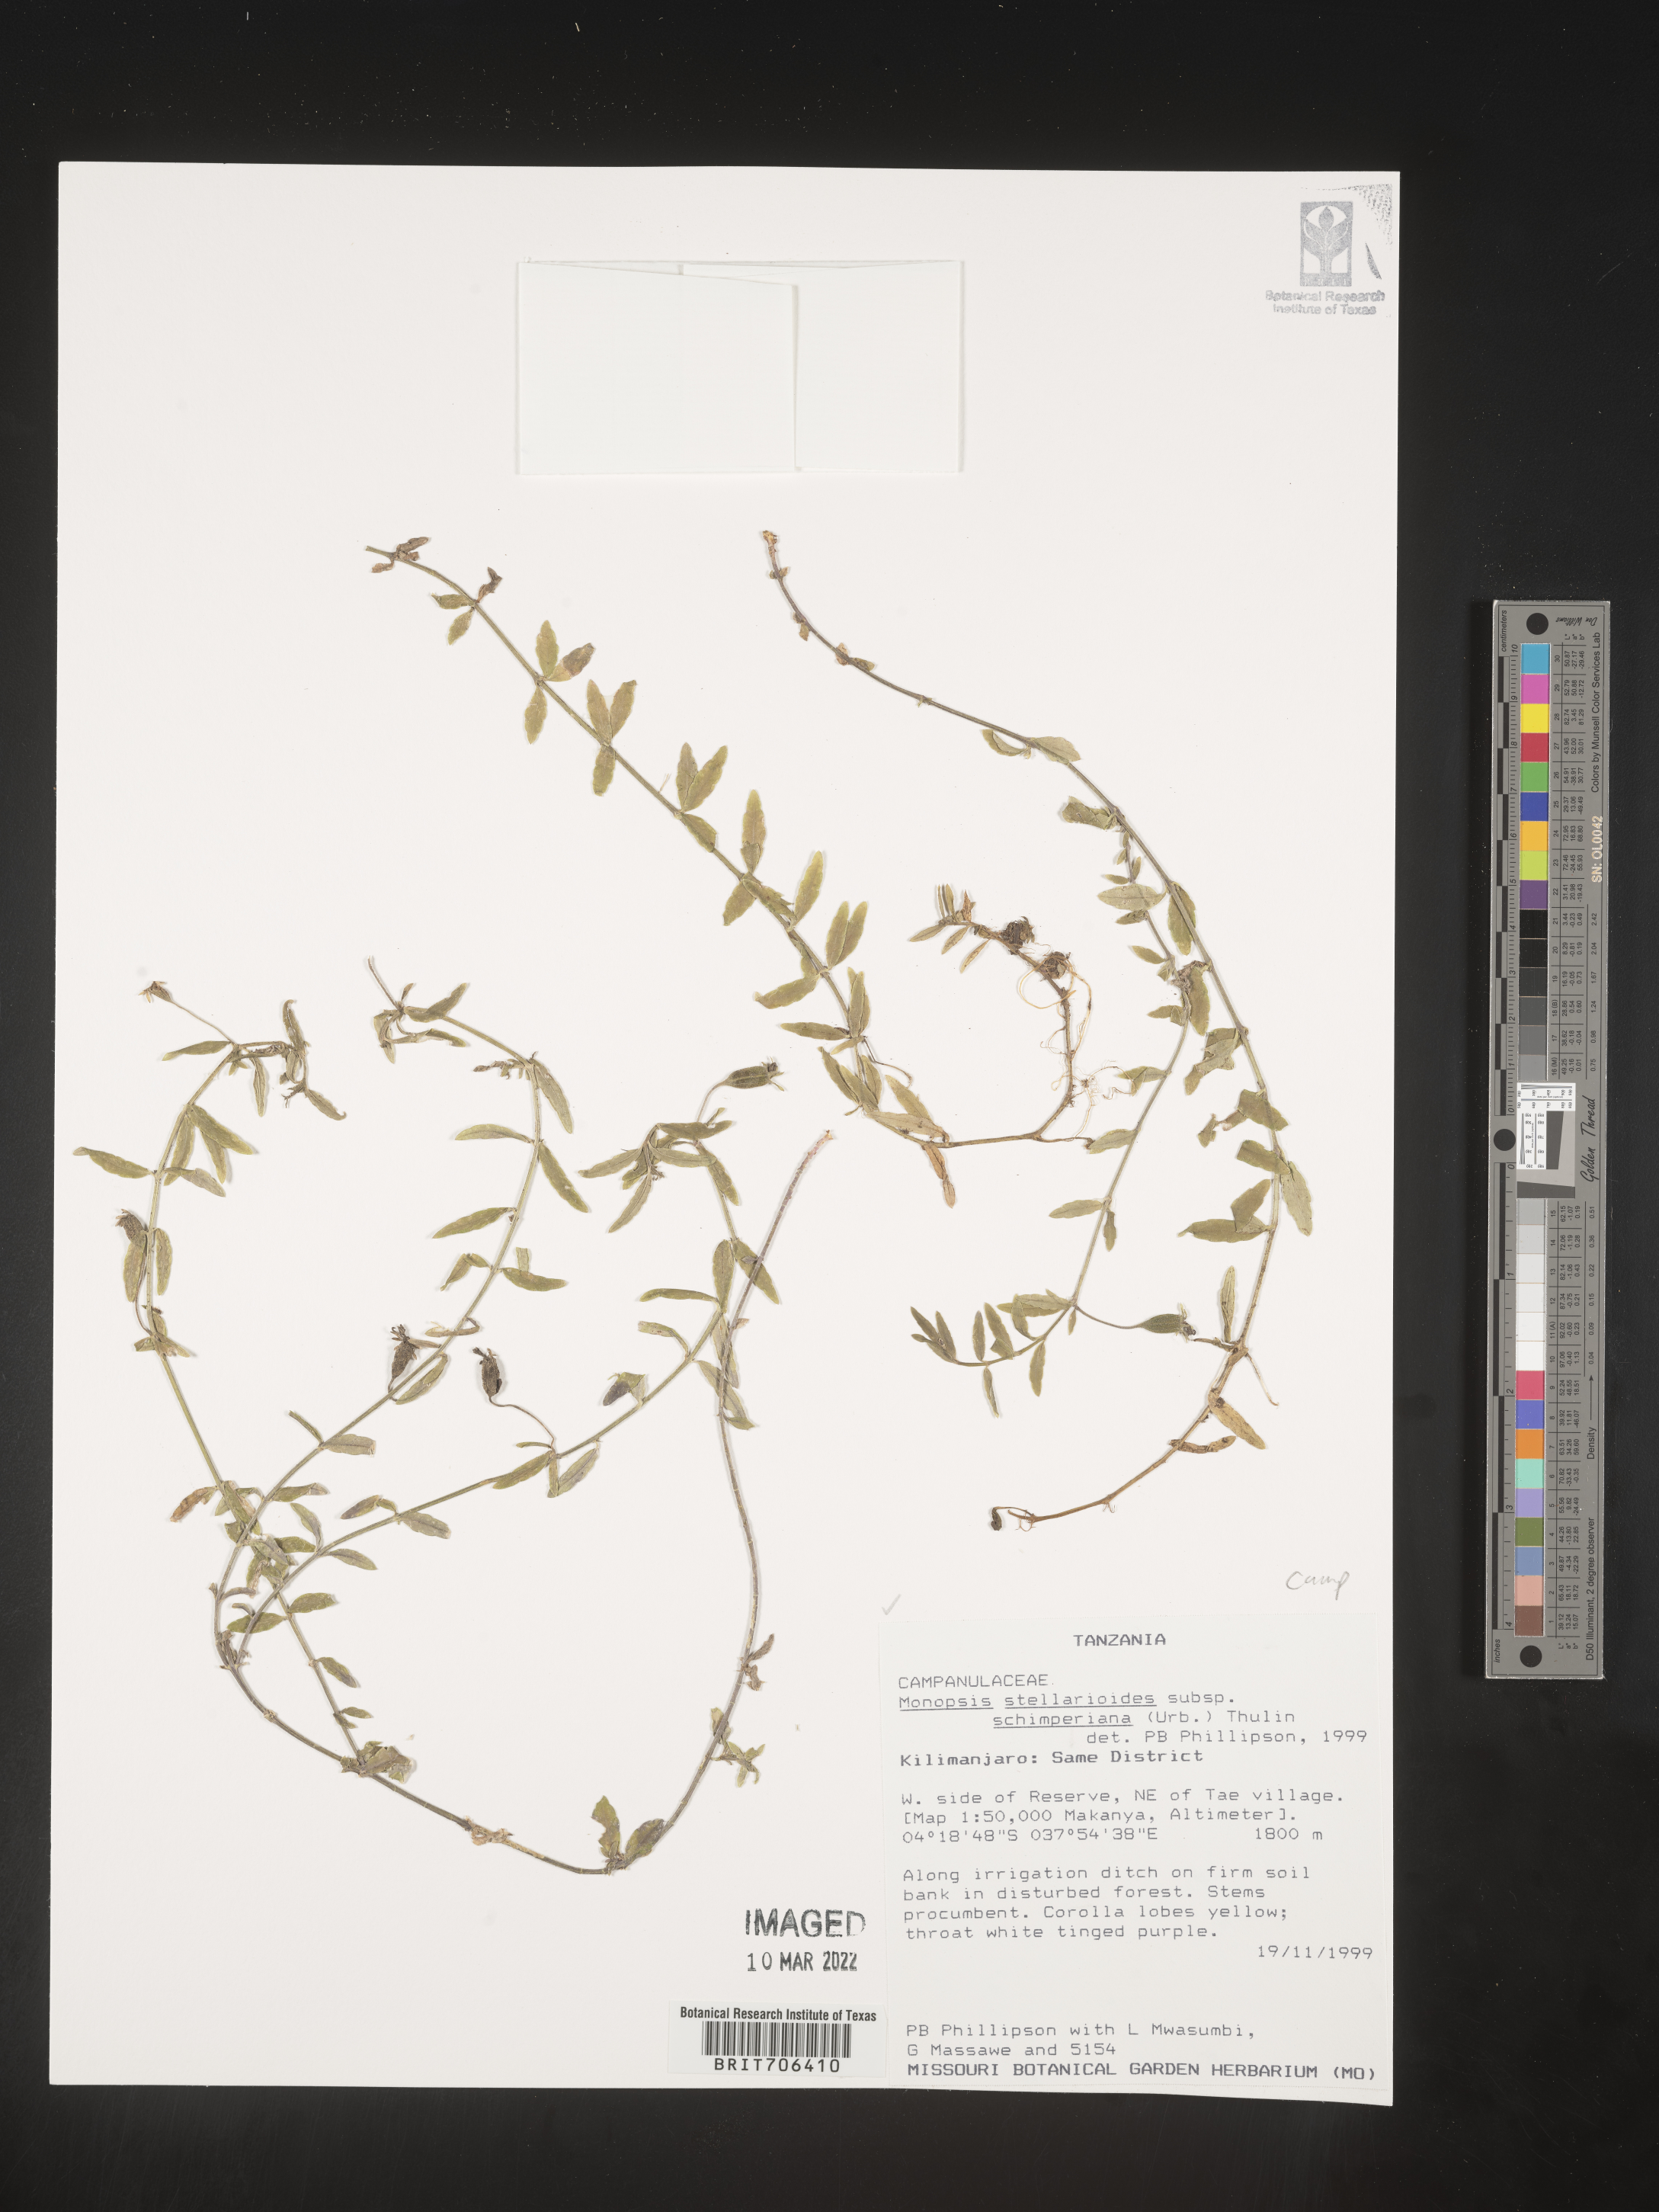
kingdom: Plantae
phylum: Tracheophyta
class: Magnoliopsida
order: Asterales
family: Campanulaceae
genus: Monopsis
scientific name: Monopsis
